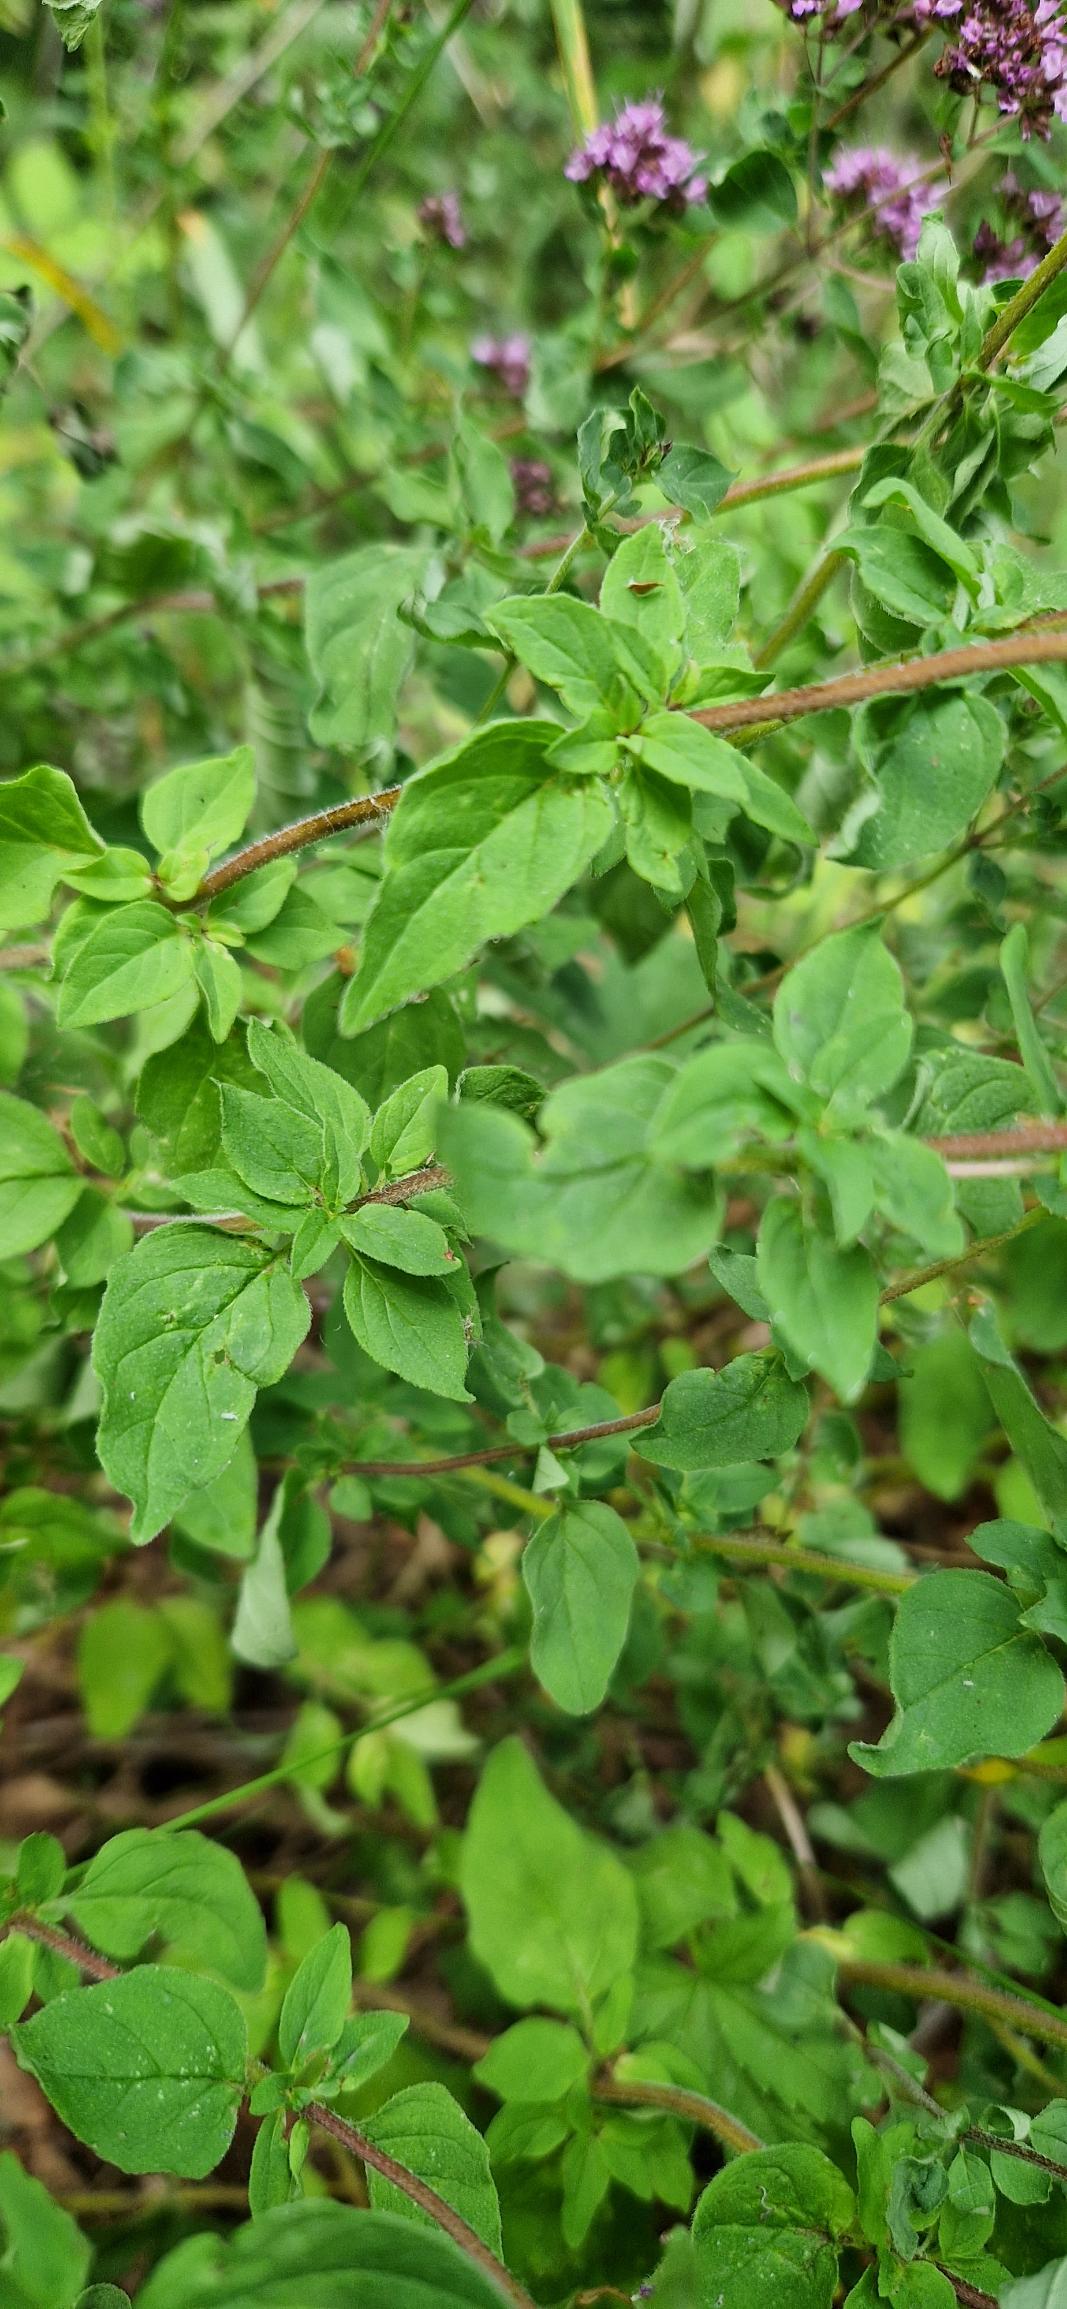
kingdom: Plantae
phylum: Tracheophyta
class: Magnoliopsida
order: Lamiales
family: Lamiaceae
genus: Origanum
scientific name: Origanum vulgare
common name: Merian
